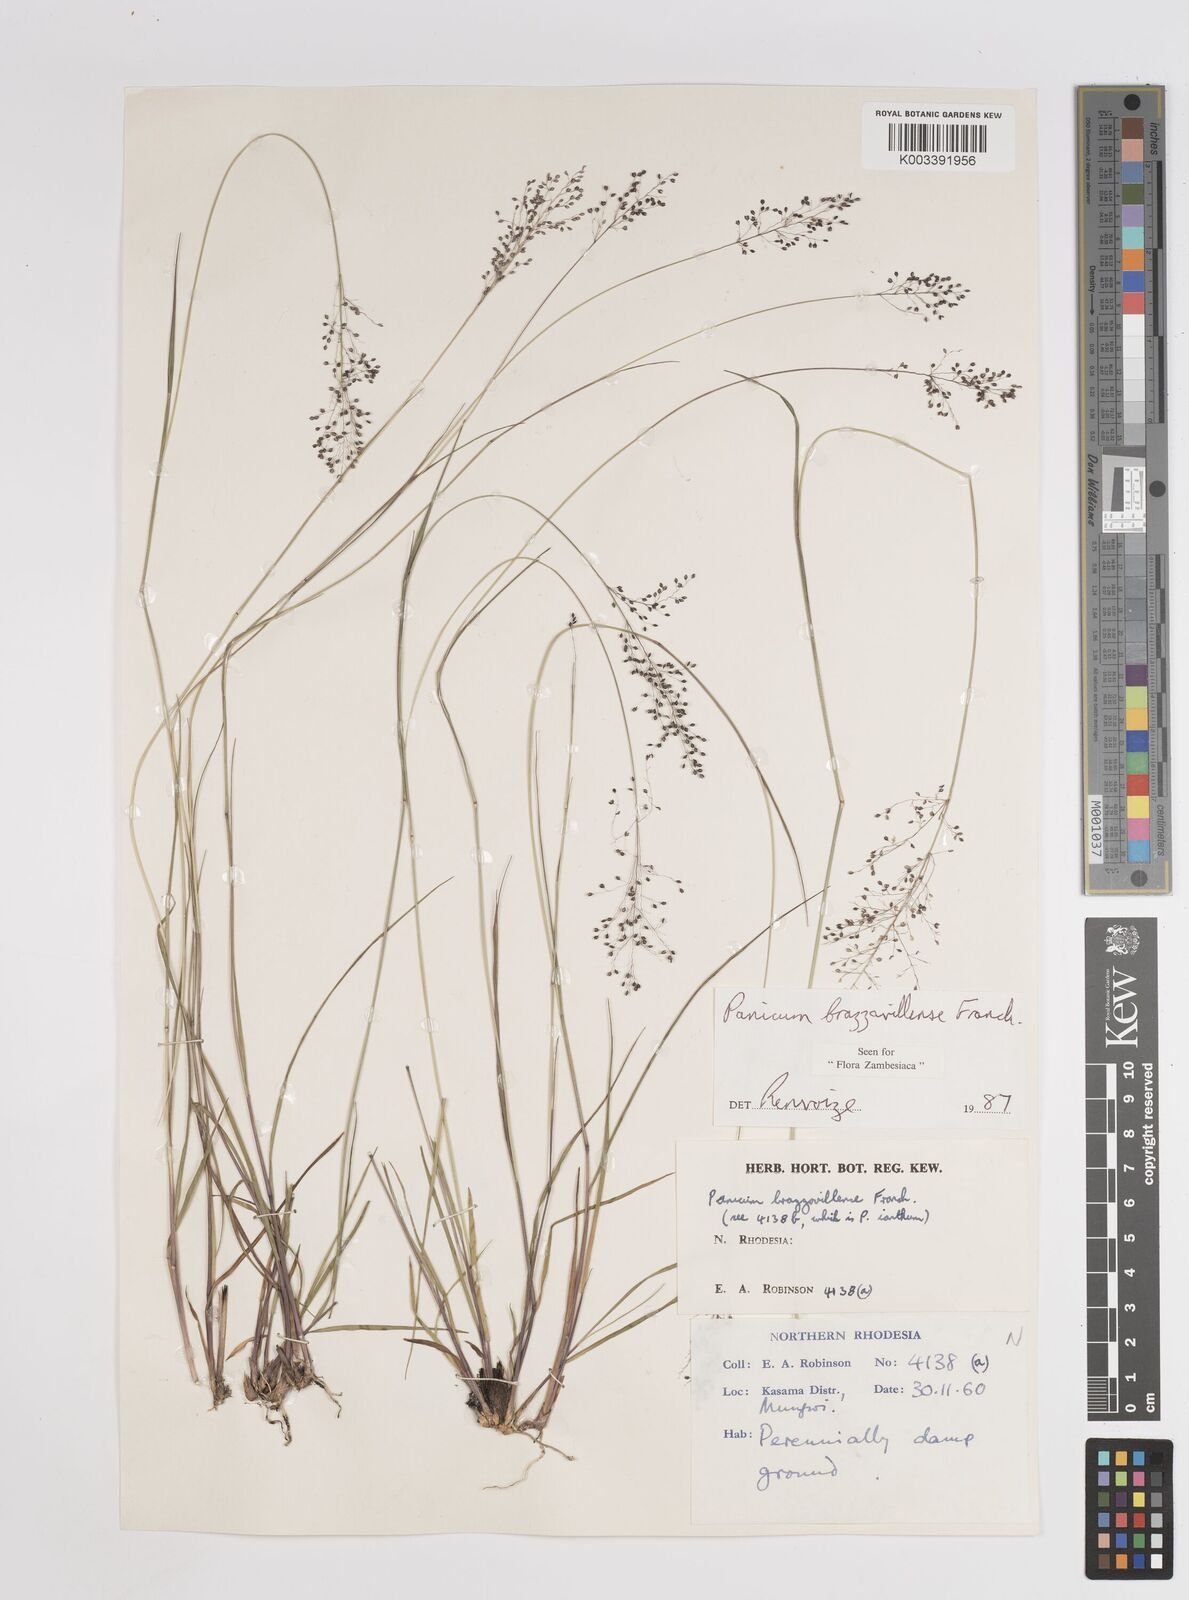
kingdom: Plantae
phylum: Tracheophyta
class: Liliopsida
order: Poales
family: Poaceae
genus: Trichanthecium
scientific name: Trichanthecium brazzavillense
